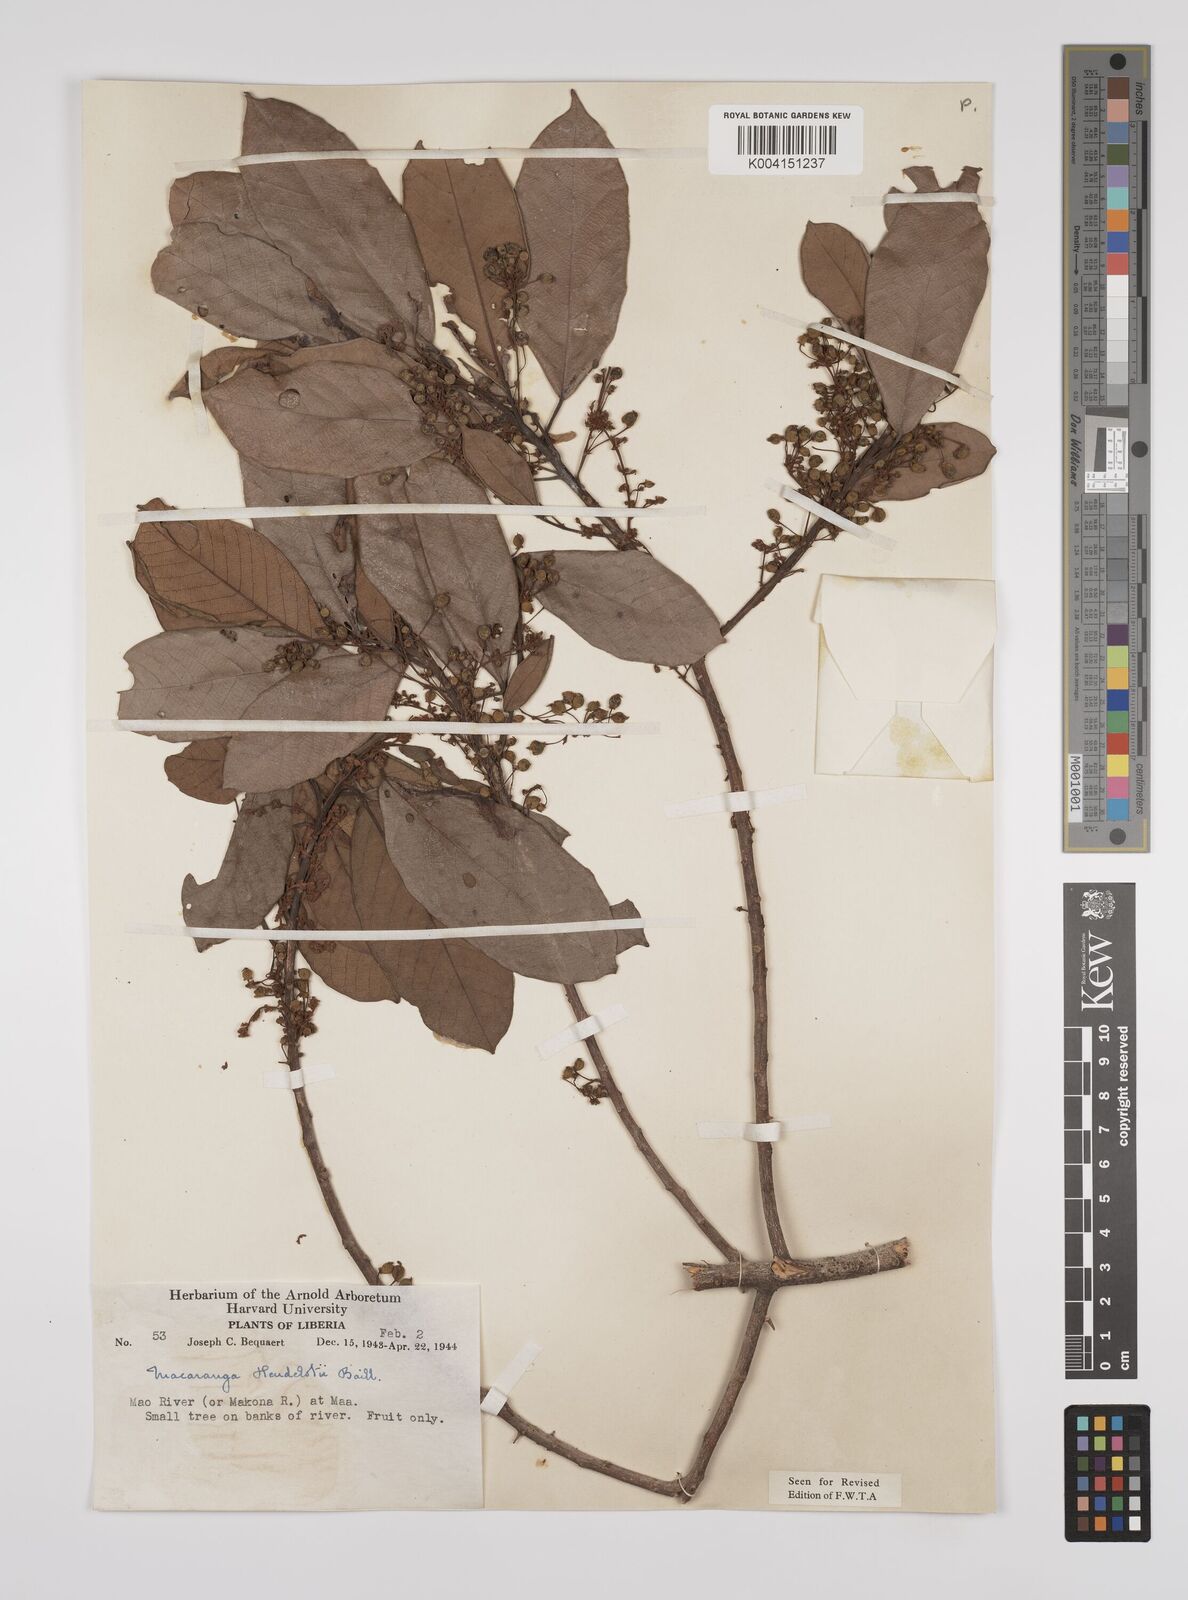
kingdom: Plantae
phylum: Tracheophyta
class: Magnoliopsida
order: Malpighiales
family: Euphorbiaceae
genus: Macaranga
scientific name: Macaranga heudelotii
